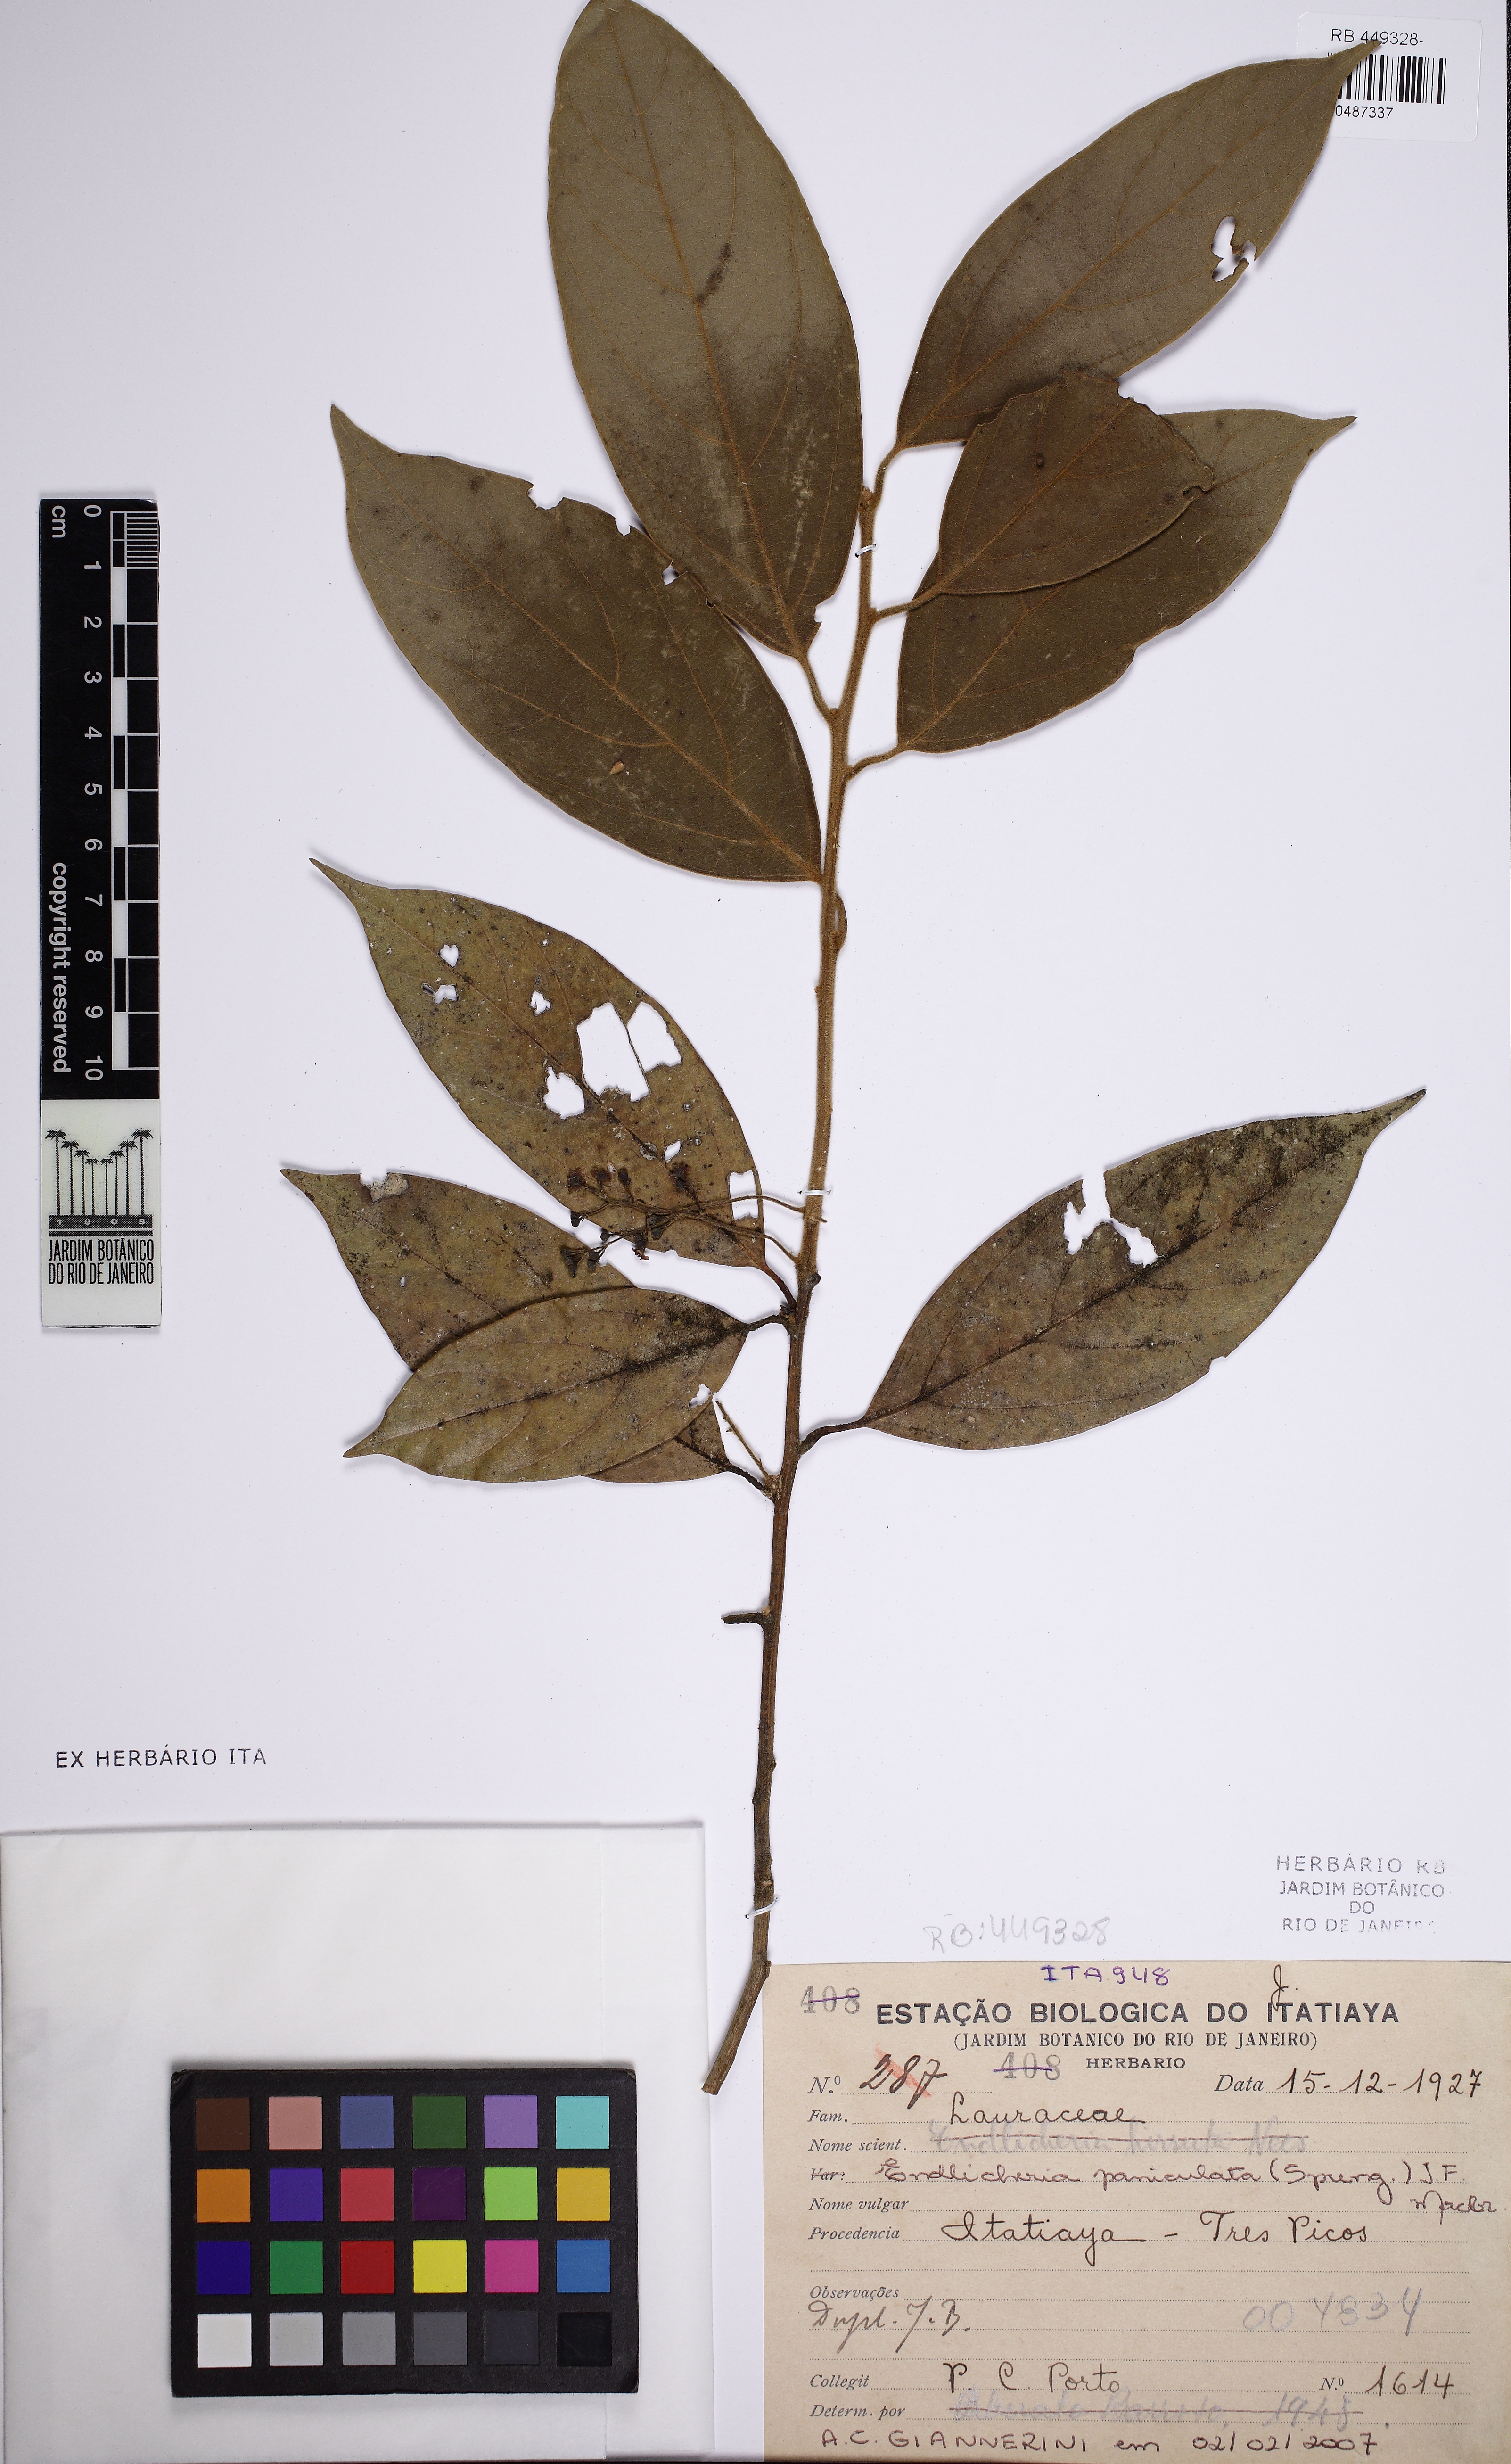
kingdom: Plantae
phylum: Tracheophyta
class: Magnoliopsida
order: Laurales
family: Lauraceae
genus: Endlicheria
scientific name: Endlicheria paniculata
